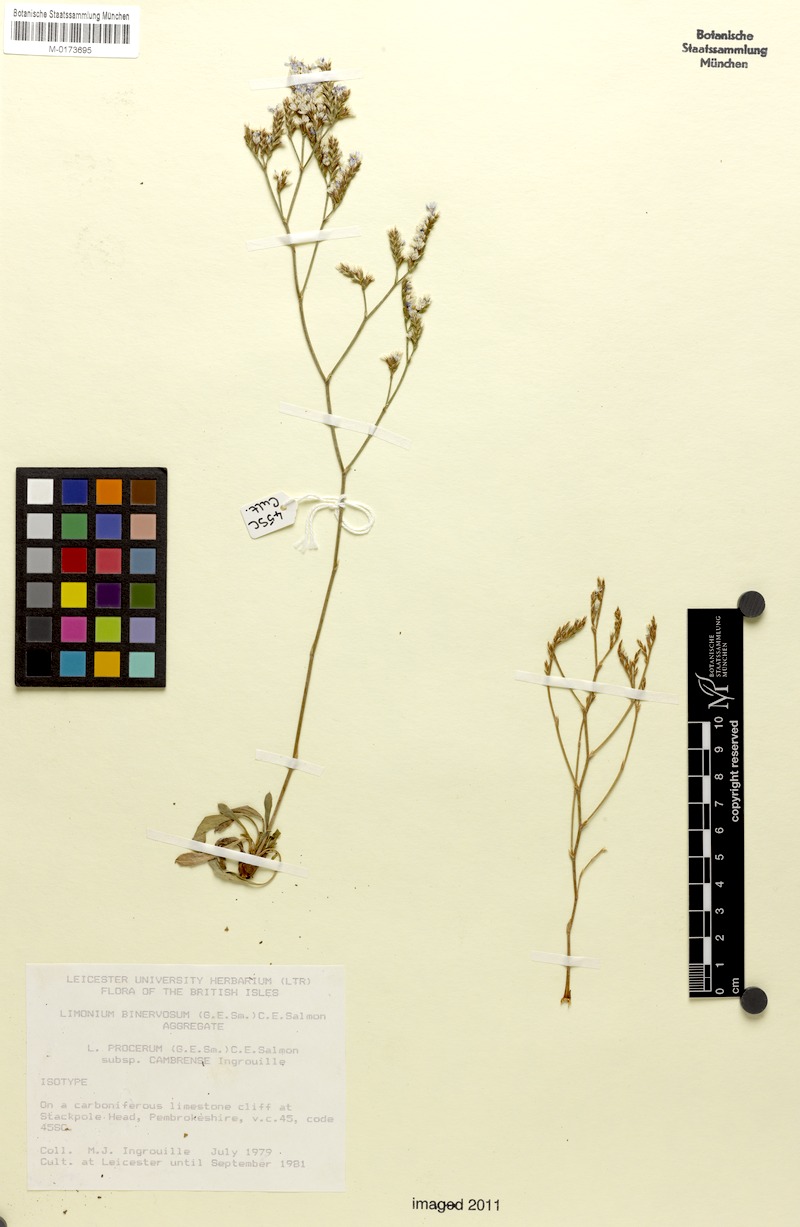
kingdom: Plantae
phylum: Tracheophyta
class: Magnoliopsida
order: Caryophyllales
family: Plumbaginaceae
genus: Limonium
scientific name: Limonium procerum
